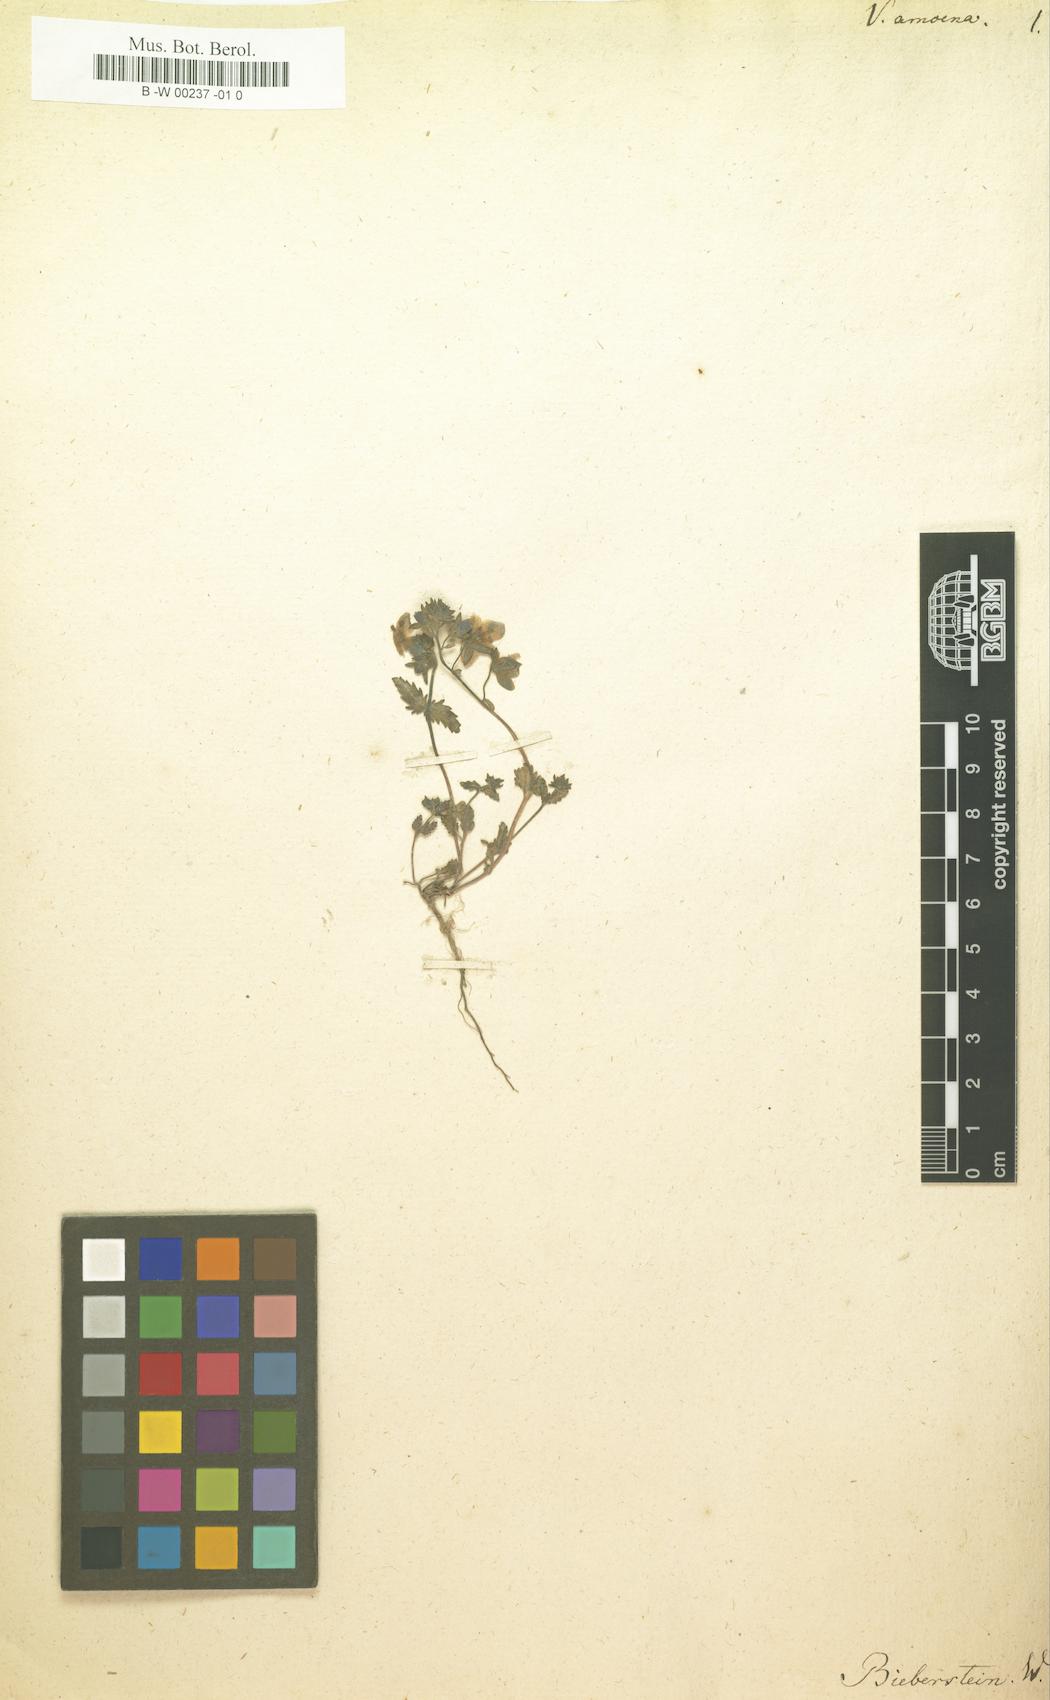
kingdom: Plantae
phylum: Tracheophyta
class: Magnoliopsida
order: Lamiales
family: Plantaginaceae
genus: Veronica
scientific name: Veronica amoena
